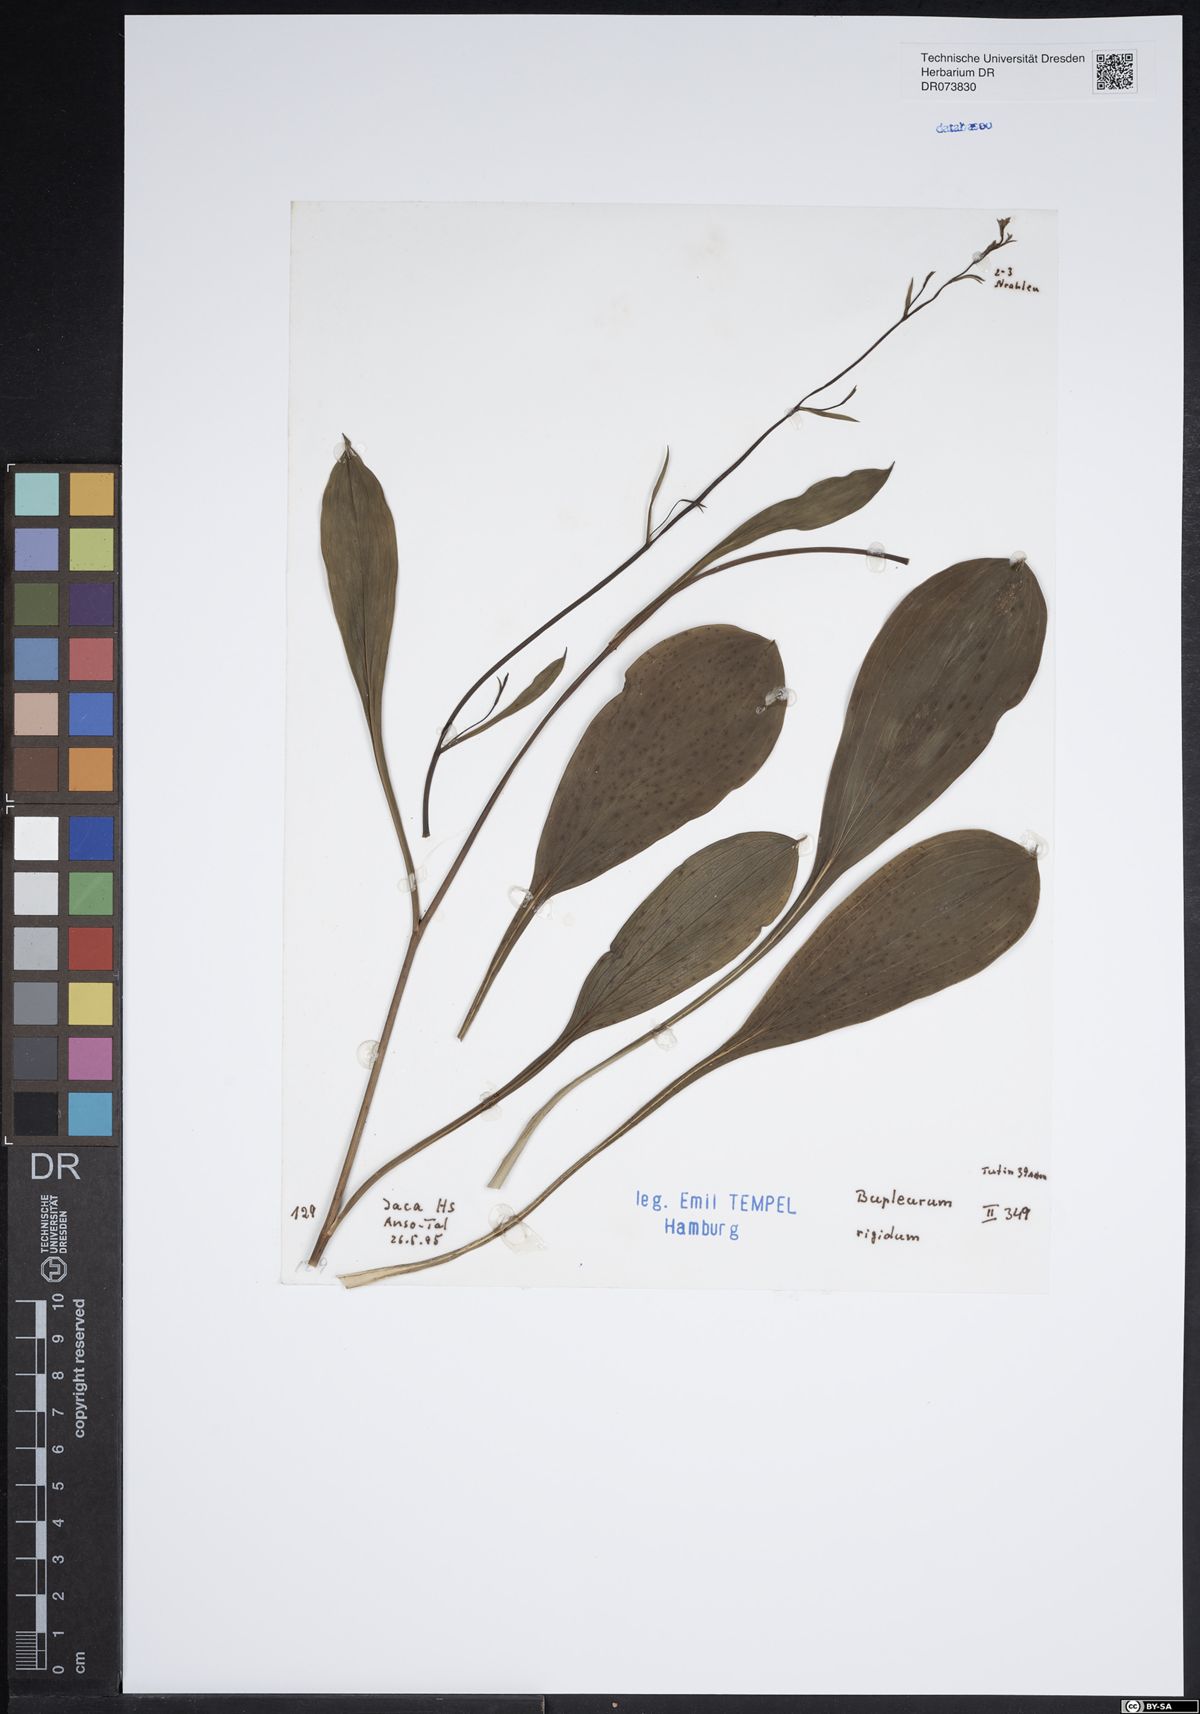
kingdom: Plantae
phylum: Tracheophyta
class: Magnoliopsida
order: Apiales
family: Apiaceae
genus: Bupleurum
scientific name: Bupleurum rigidum
